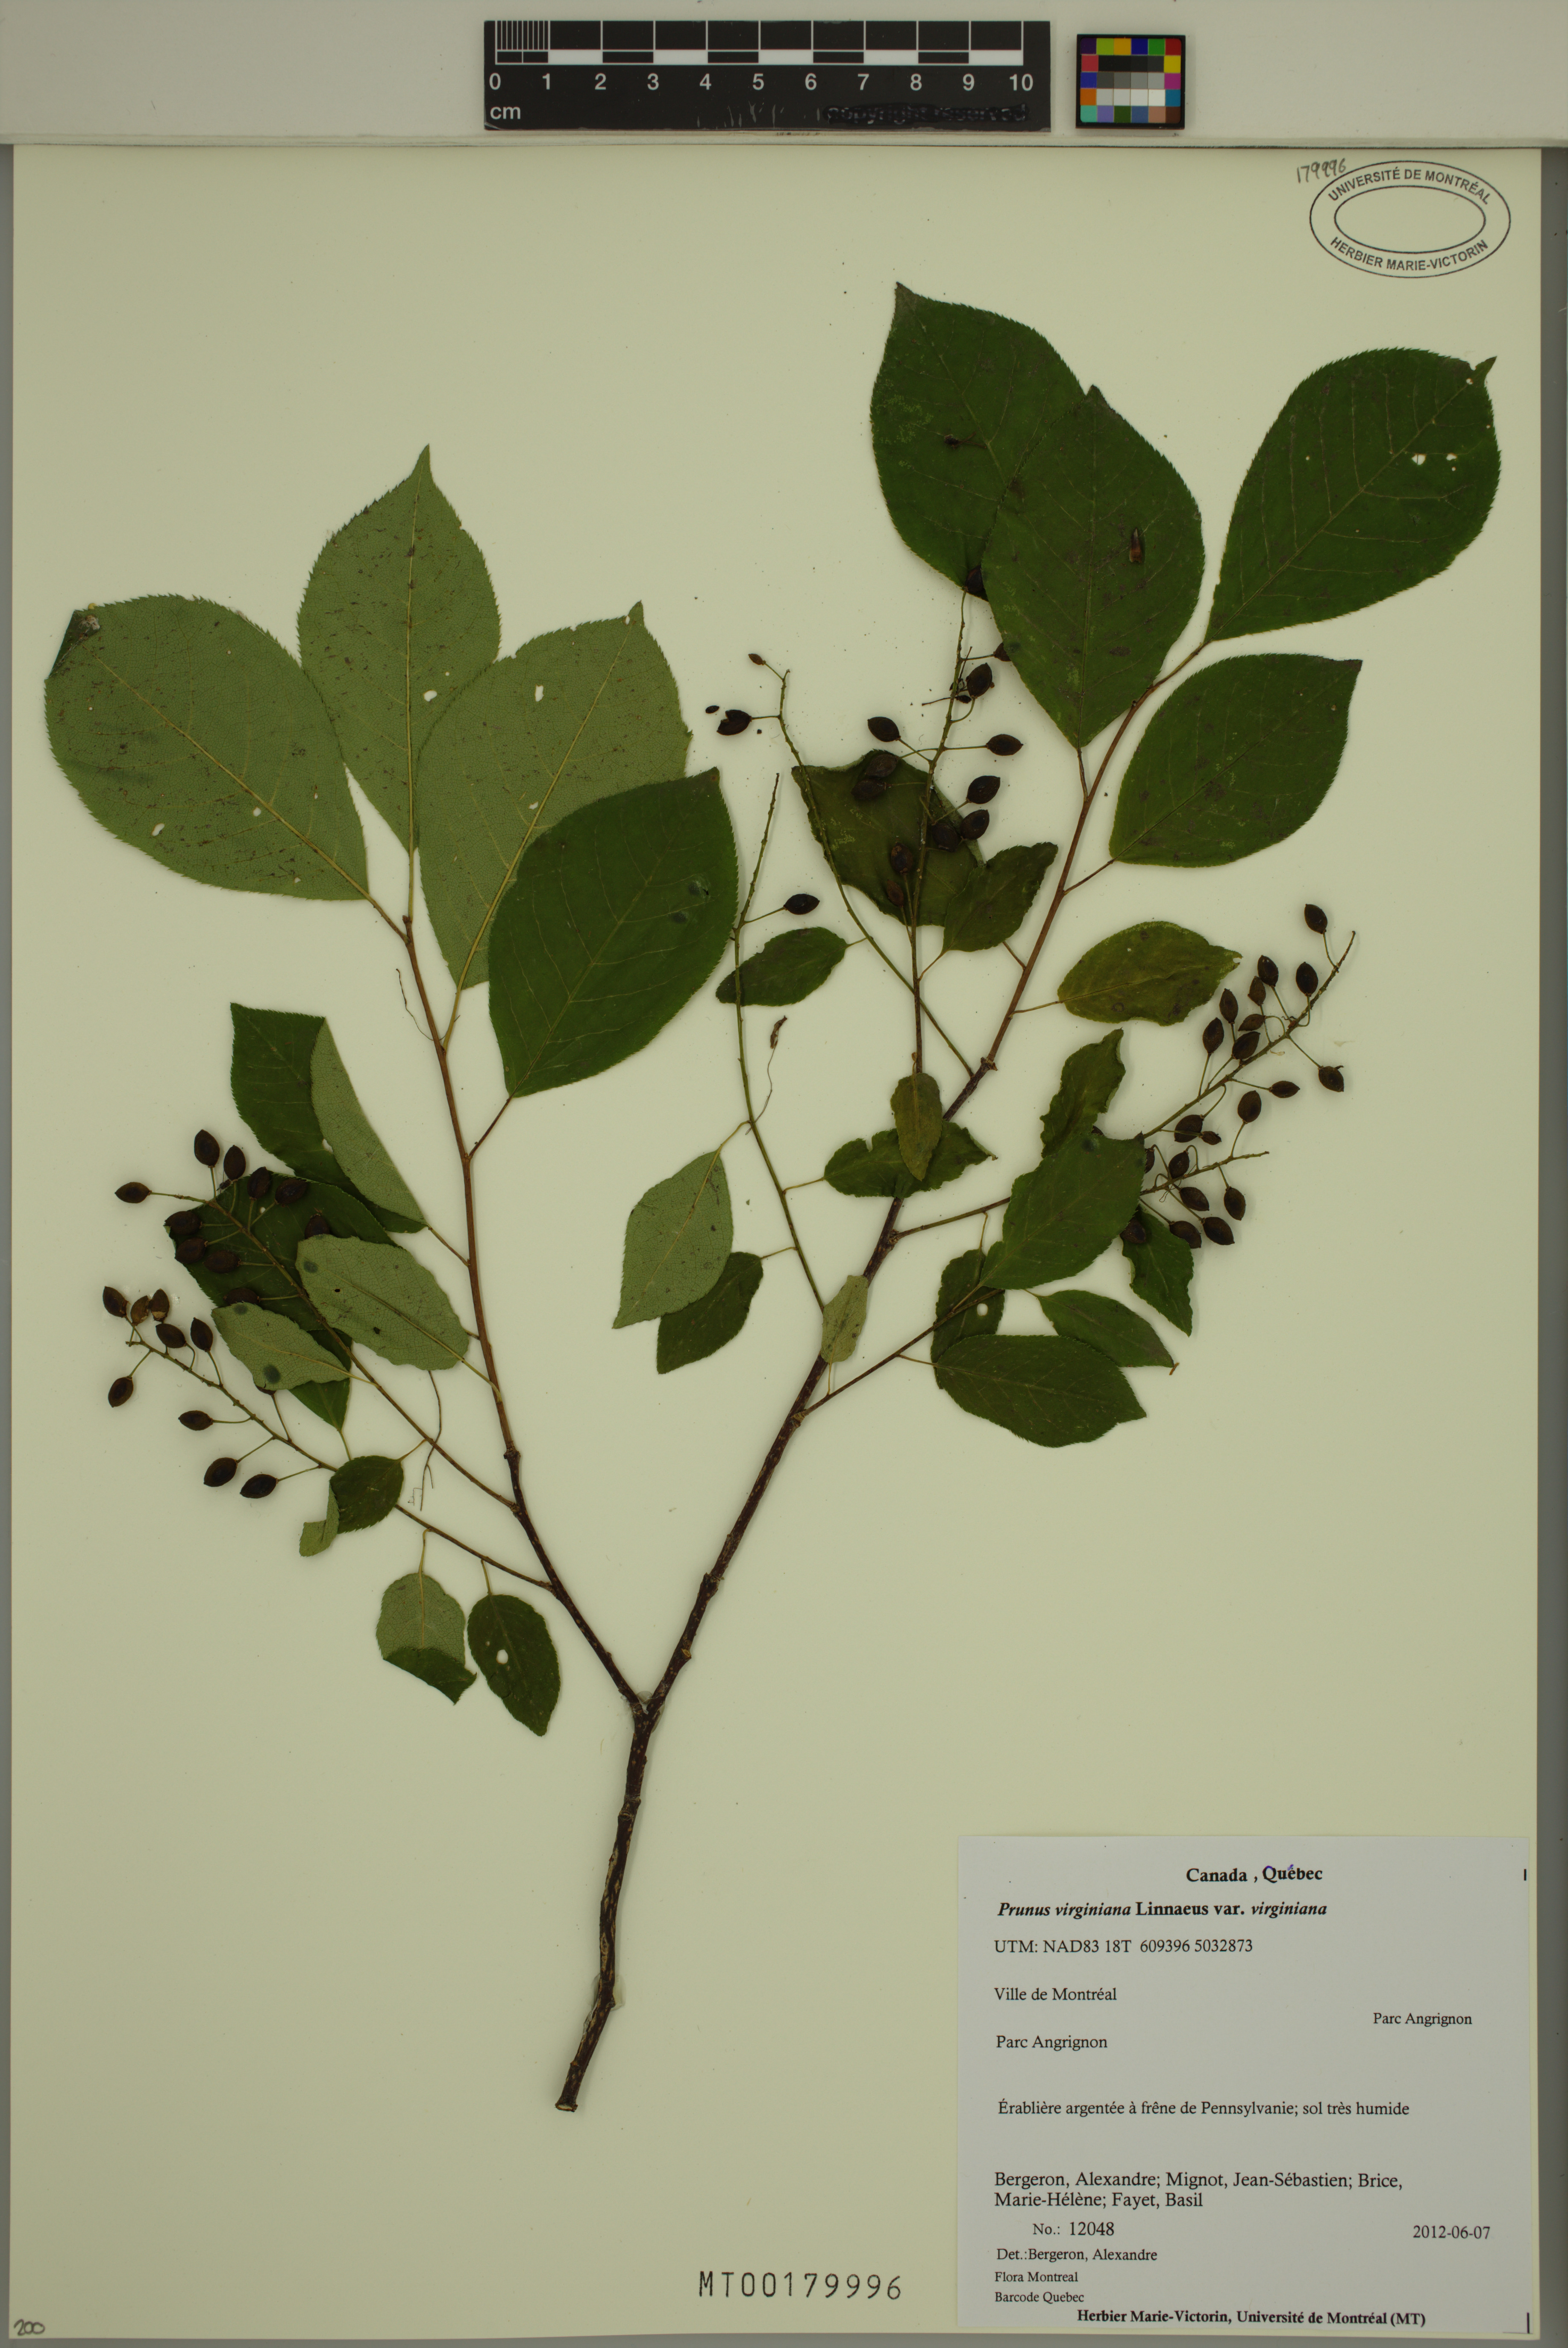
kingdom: Plantae
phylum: Tracheophyta
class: Magnoliopsida
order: Rosales
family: Rosaceae
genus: Prunus
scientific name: Prunus virginiana
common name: Chokecherry
